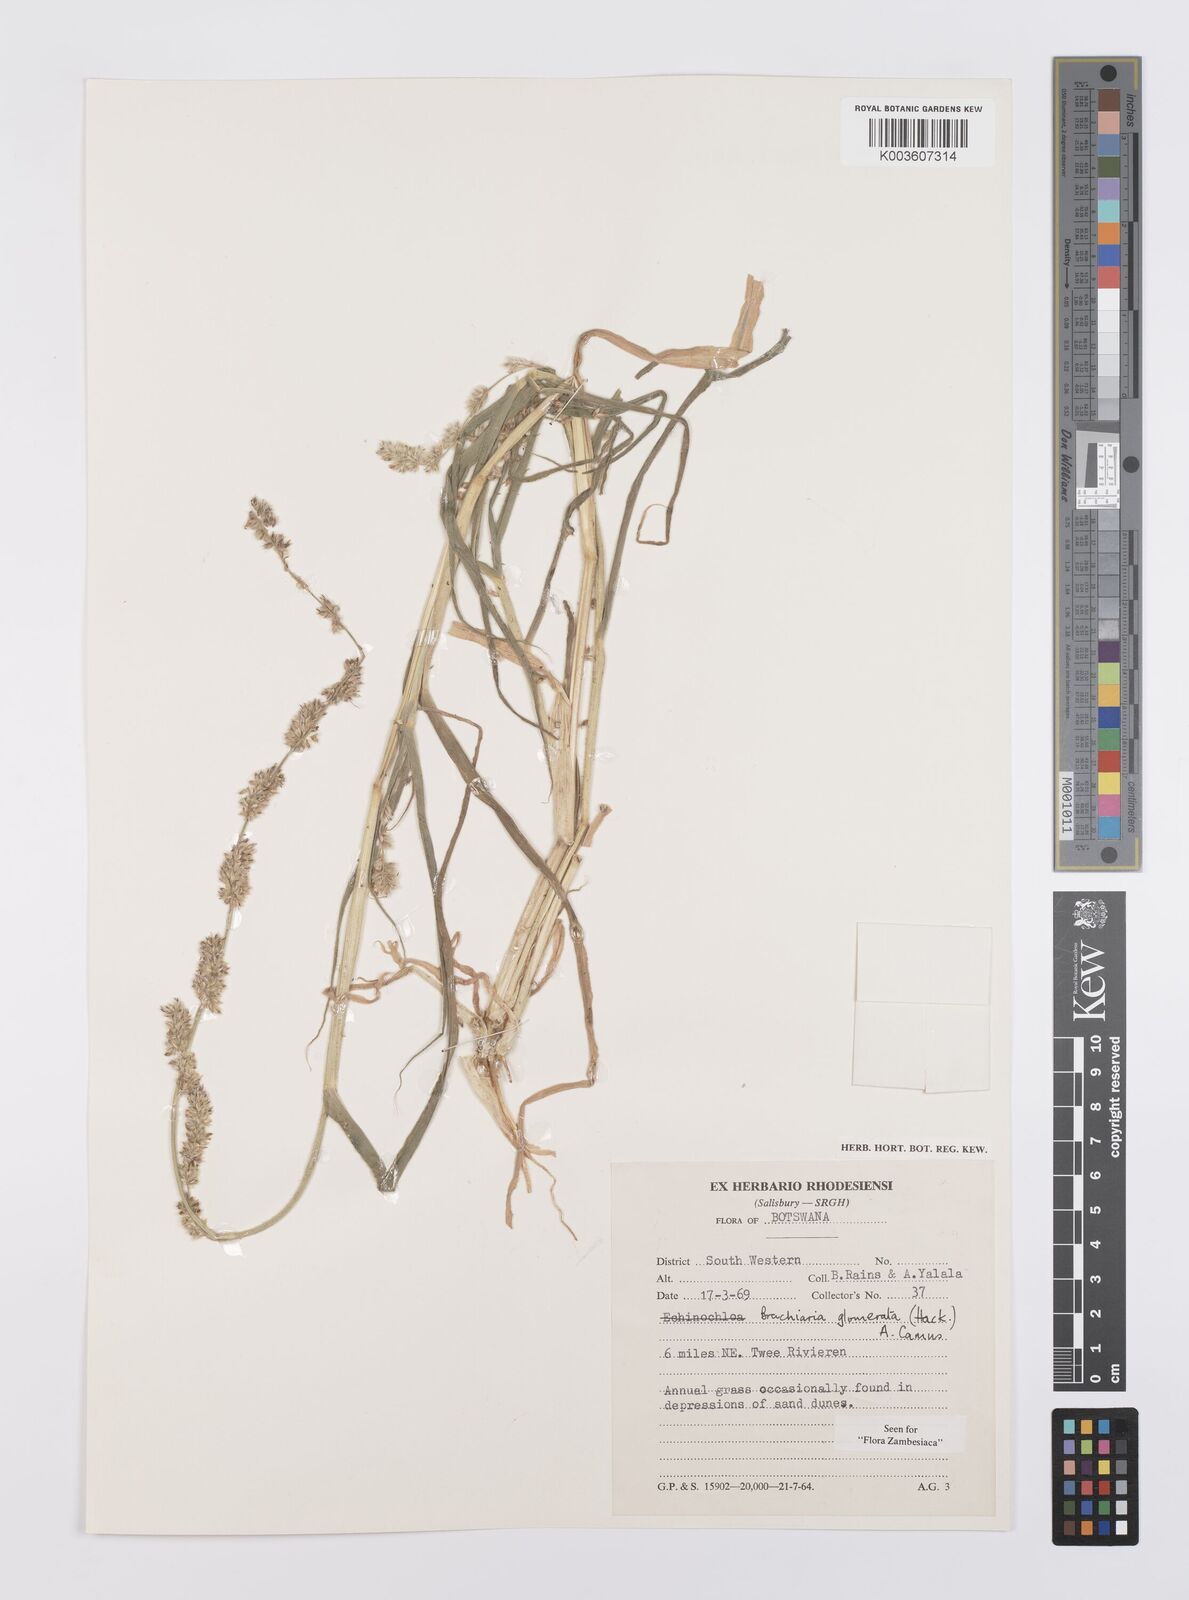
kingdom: Plantae
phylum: Tracheophyta
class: Liliopsida
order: Poales
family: Poaceae
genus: Urochloa
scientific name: Urochloa Brachiaria glomerata
